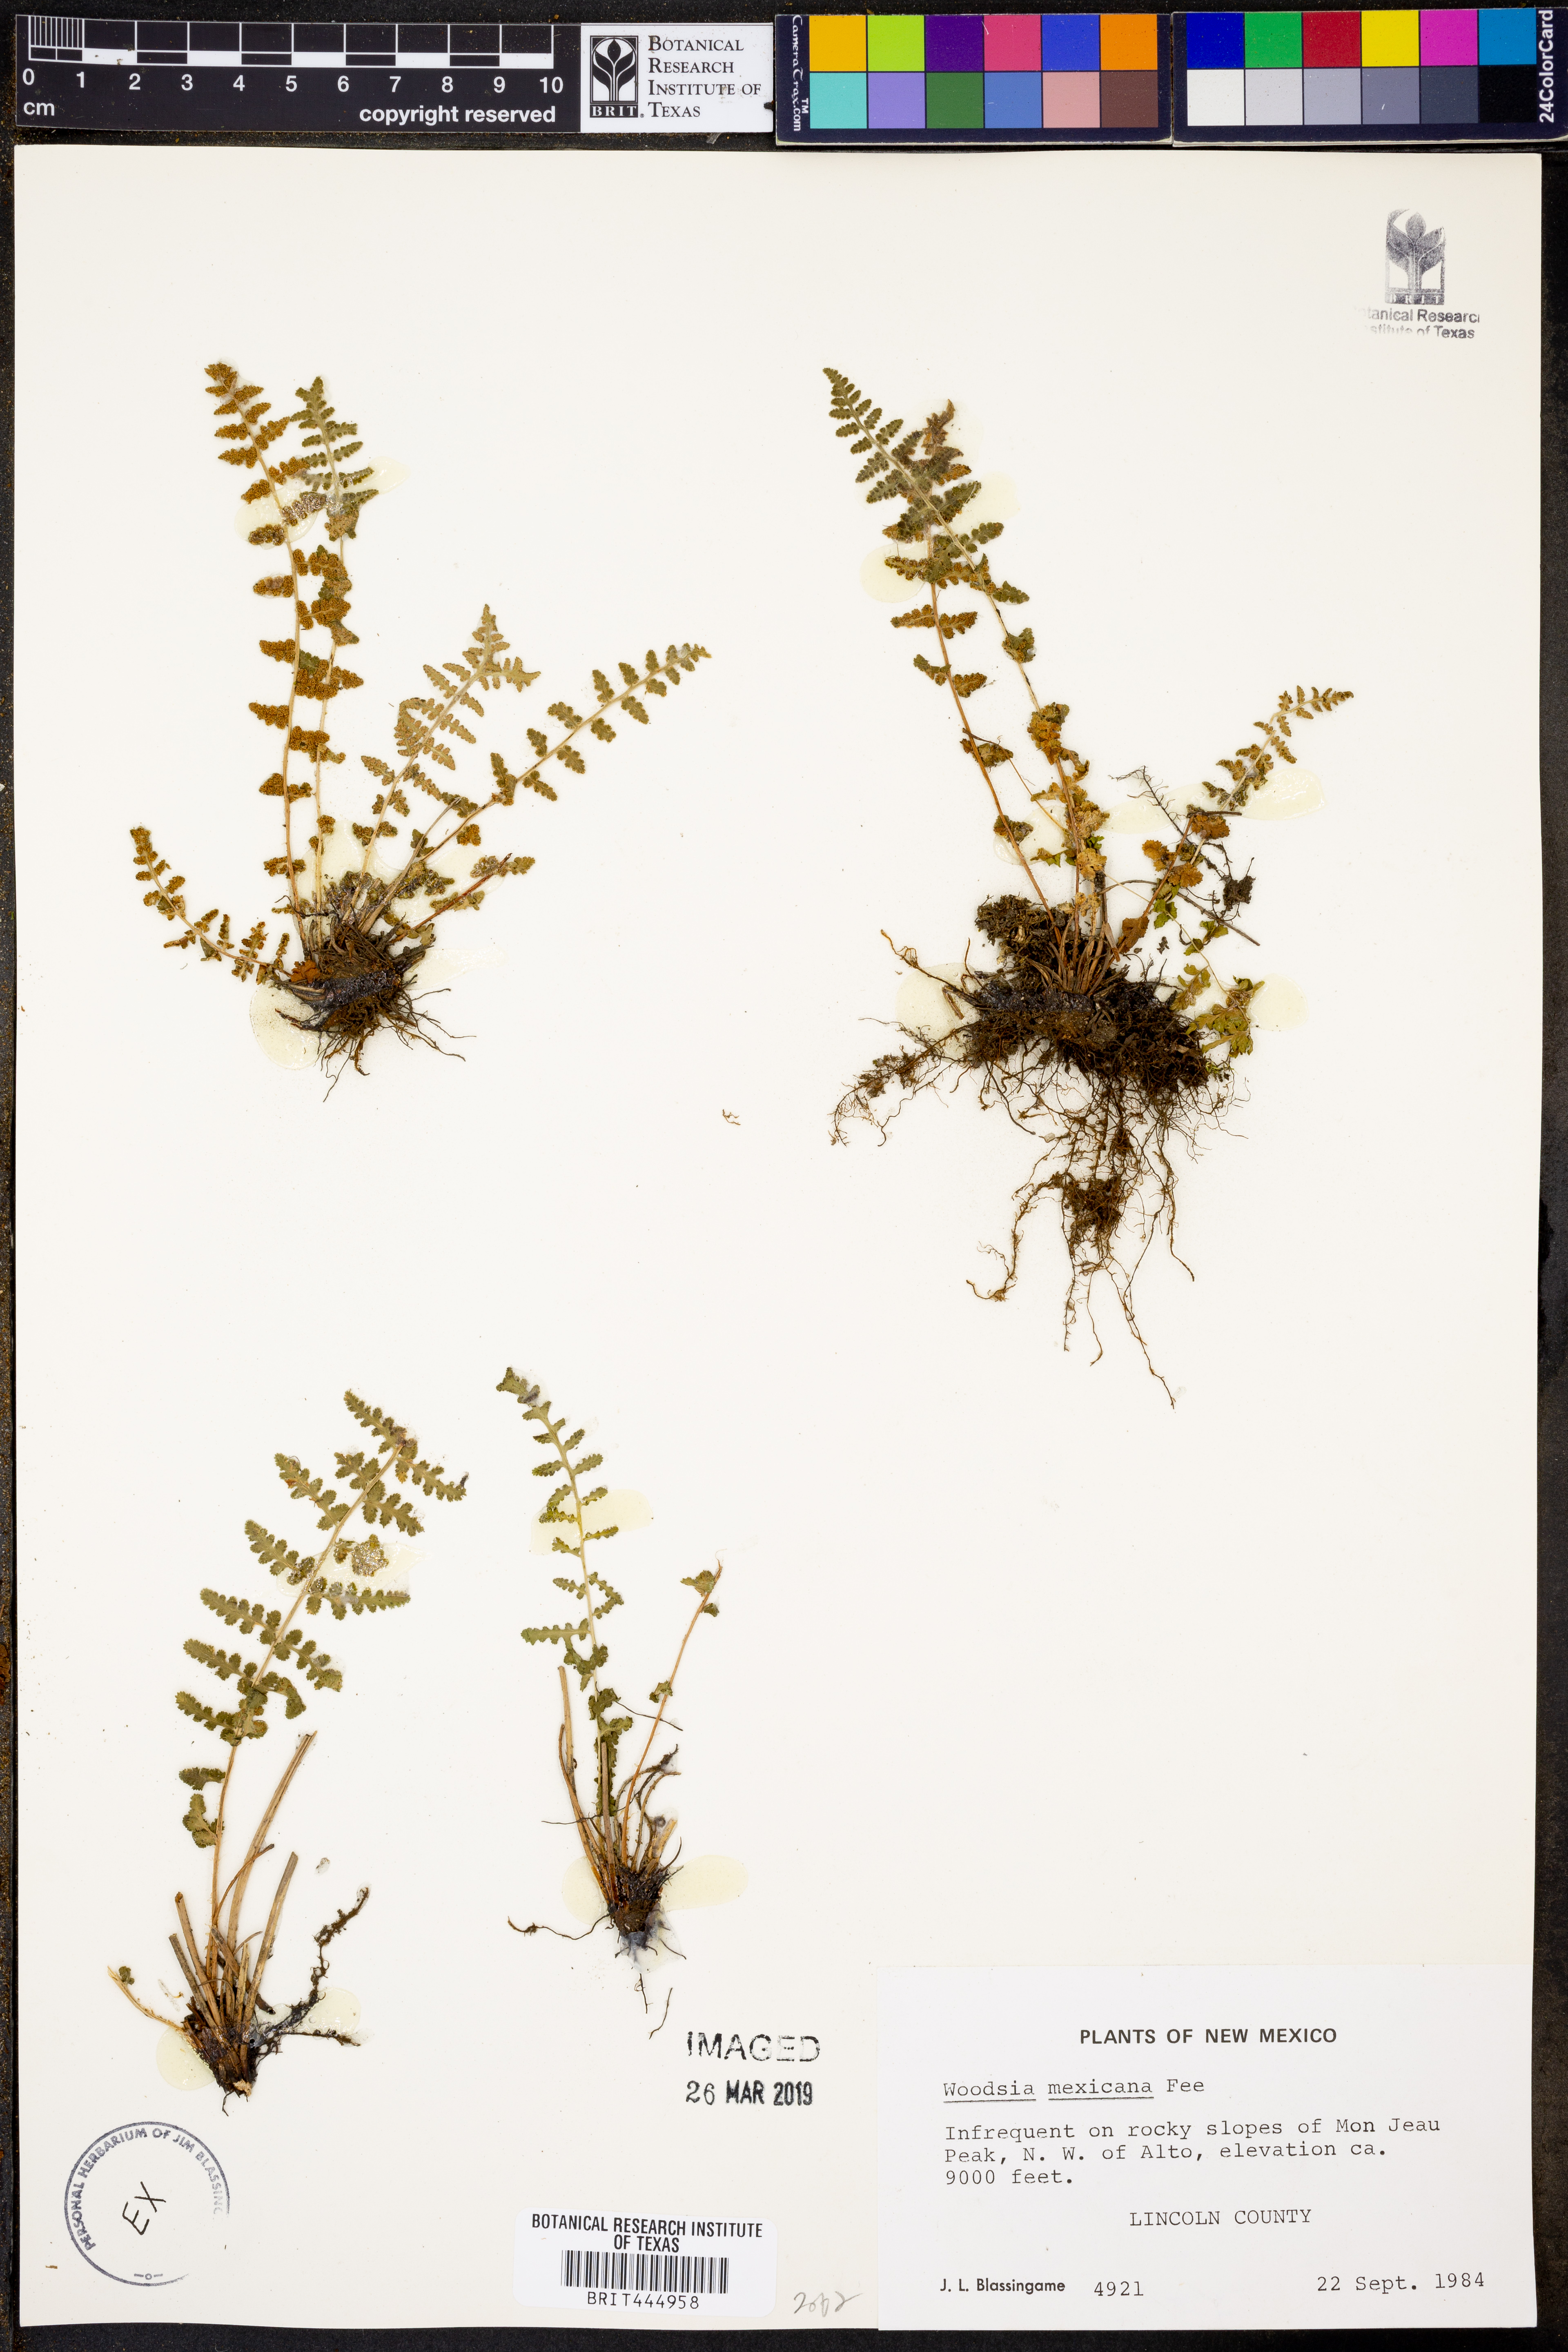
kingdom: Plantae
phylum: Tracheophyta
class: Polypodiopsida
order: Polypodiales
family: Woodsiaceae
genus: Physematium
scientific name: Physematium mexicanum
